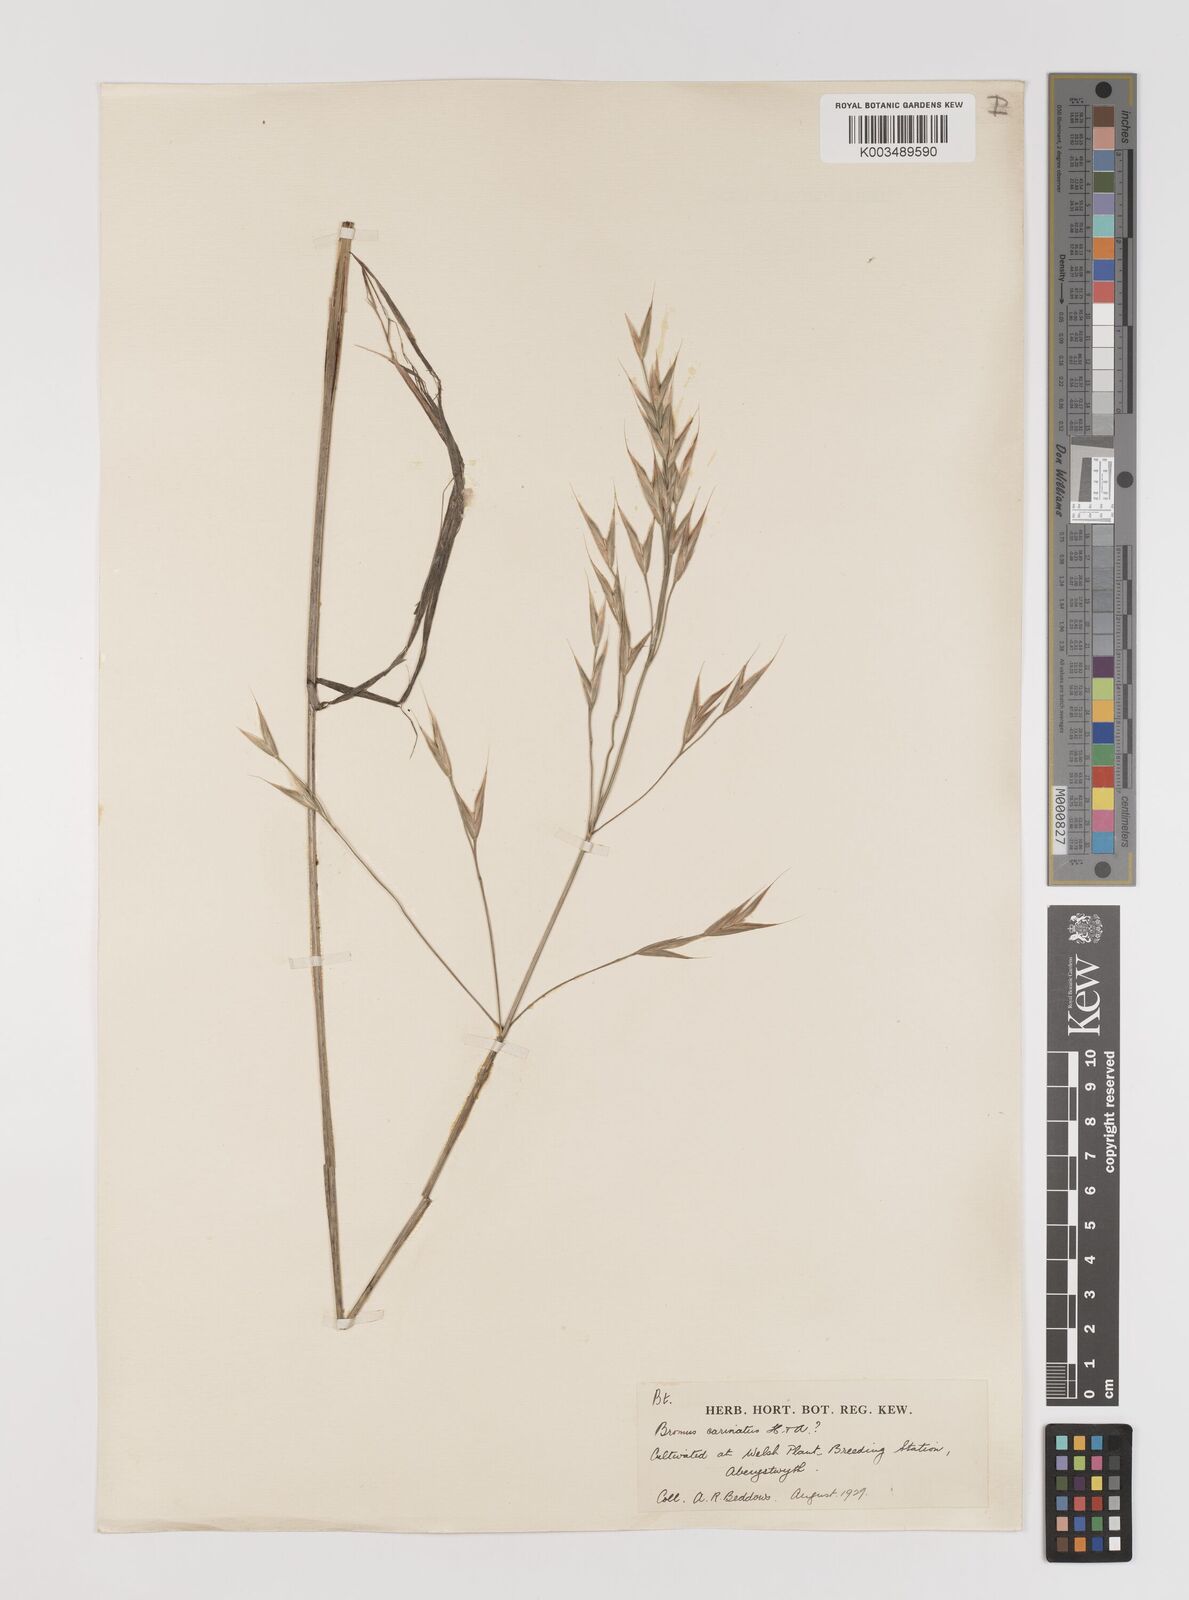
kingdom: Plantae
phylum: Tracheophyta
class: Liliopsida
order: Poales
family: Poaceae
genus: Bromus
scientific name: Bromus carinatus
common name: Mountain brome
